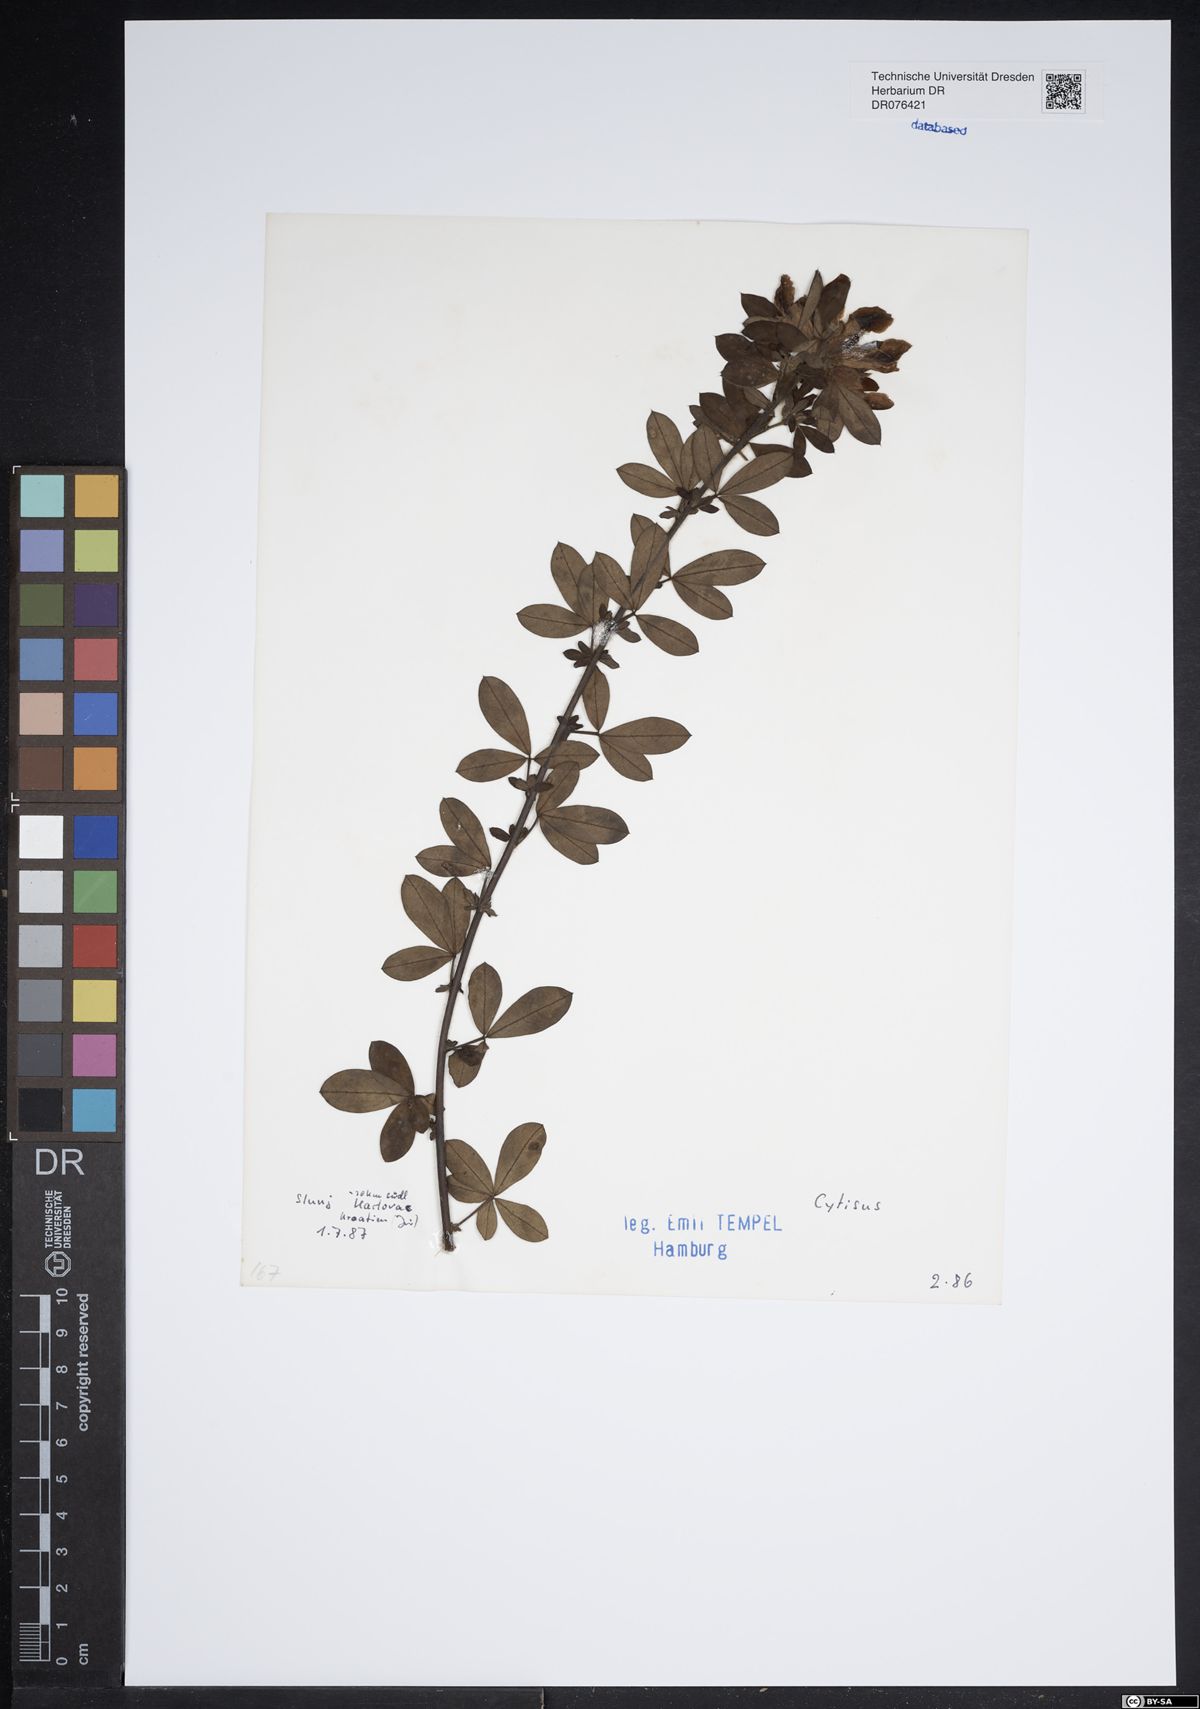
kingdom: Plantae
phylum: Tracheophyta
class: Magnoliopsida
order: Fabales
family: Fabaceae
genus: Cytisus
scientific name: Cytisus
